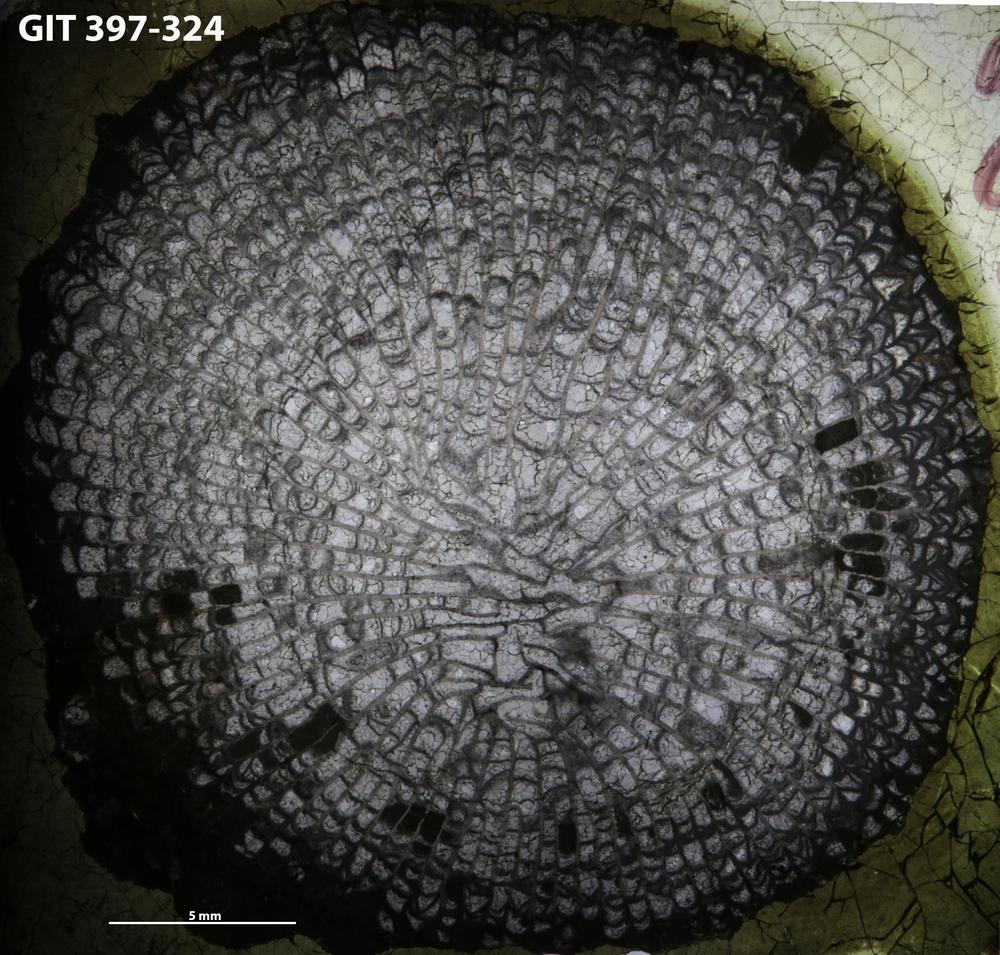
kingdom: Animalia
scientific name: Animalia
